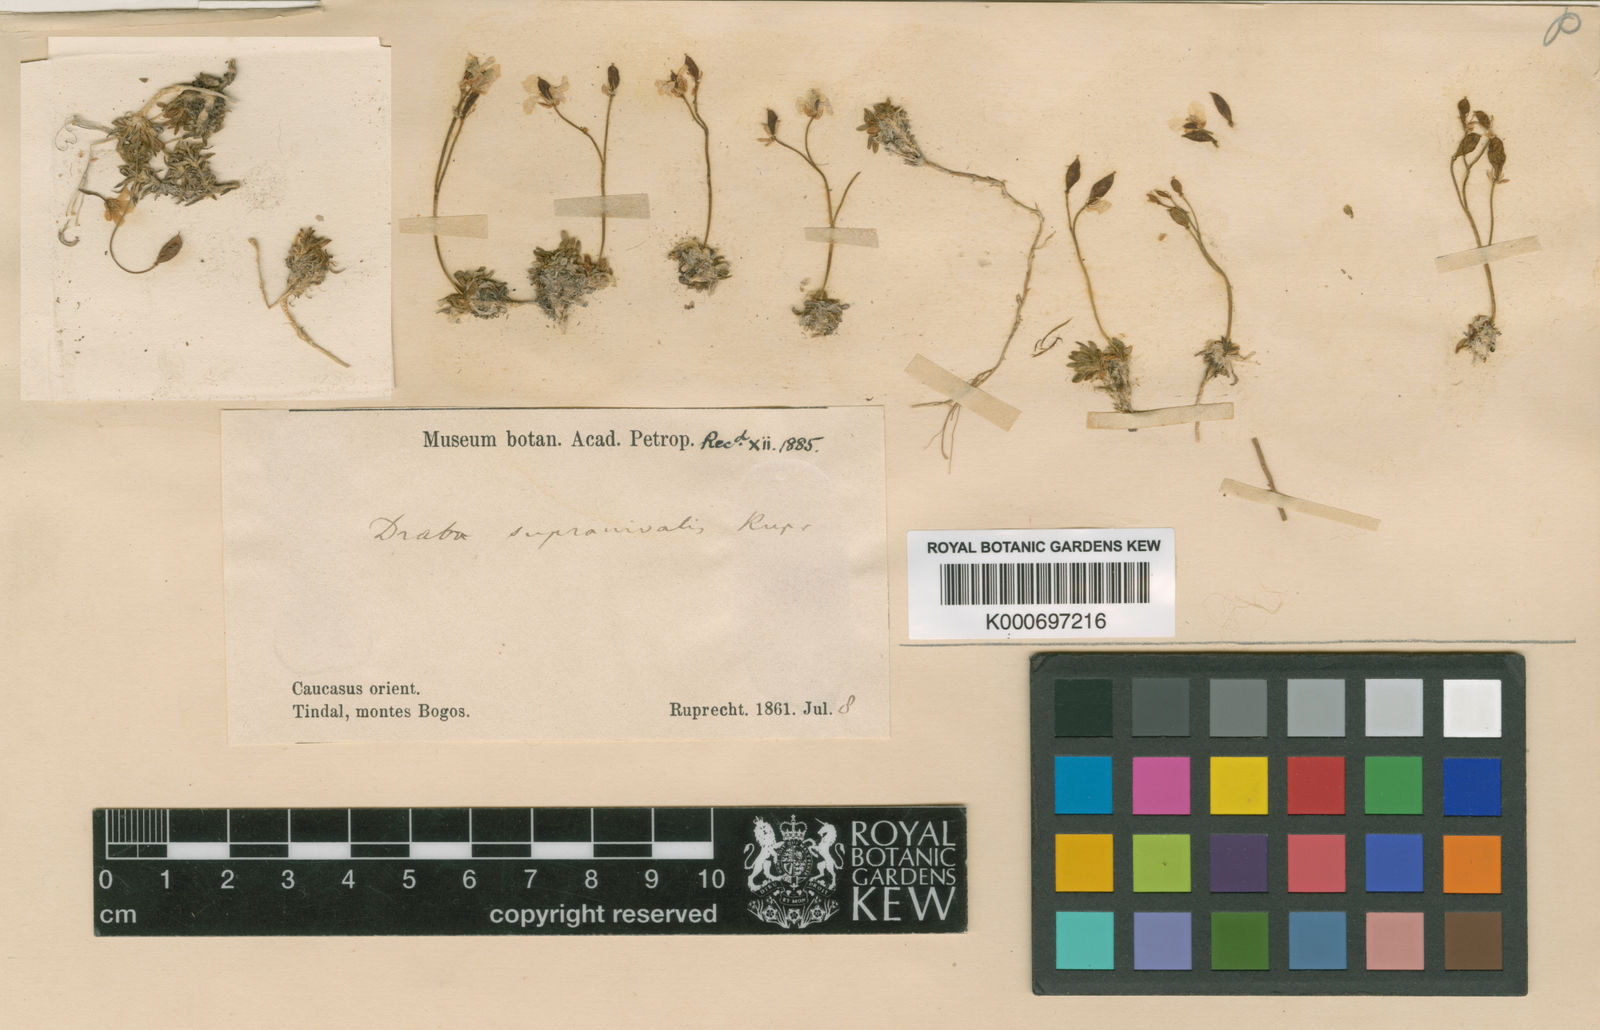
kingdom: Plantae
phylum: Tracheophyta
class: Magnoliopsida
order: Brassicales
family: Brassicaceae
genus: Draba
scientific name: Draba supranivalis
